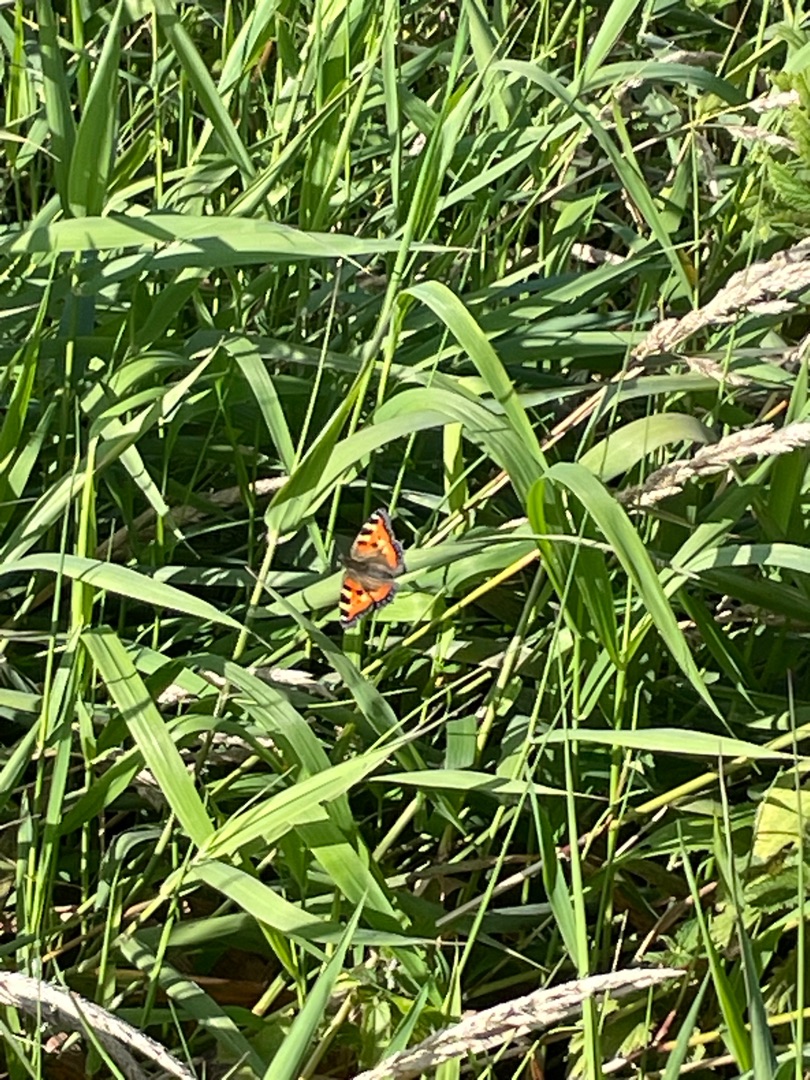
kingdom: Animalia
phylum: Arthropoda
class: Insecta
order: Lepidoptera
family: Nymphalidae
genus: Aglais
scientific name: Aglais urticae
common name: Nældens takvinge
